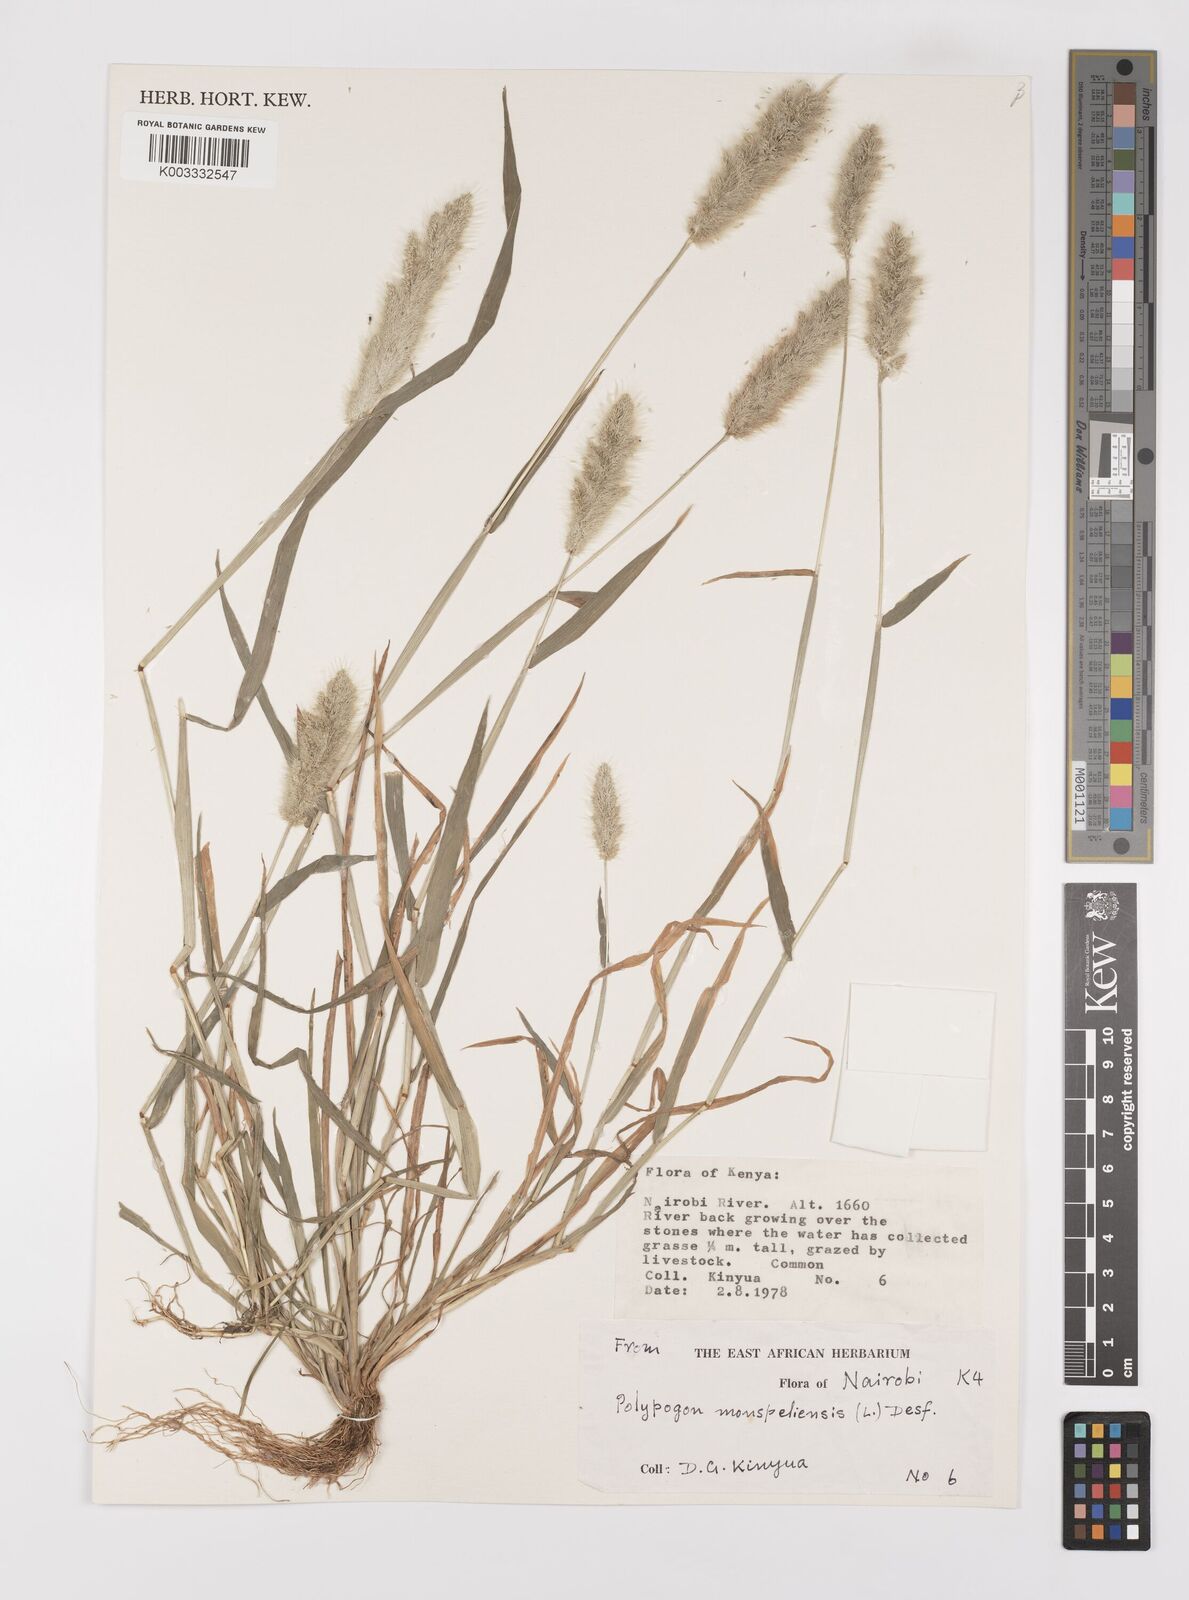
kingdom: Plantae
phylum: Tracheophyta
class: Liliopsida
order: Poales
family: Poaceae
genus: Polypogon
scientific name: Polypogon monspeliensis
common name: Annual rabbitsfoot grass
